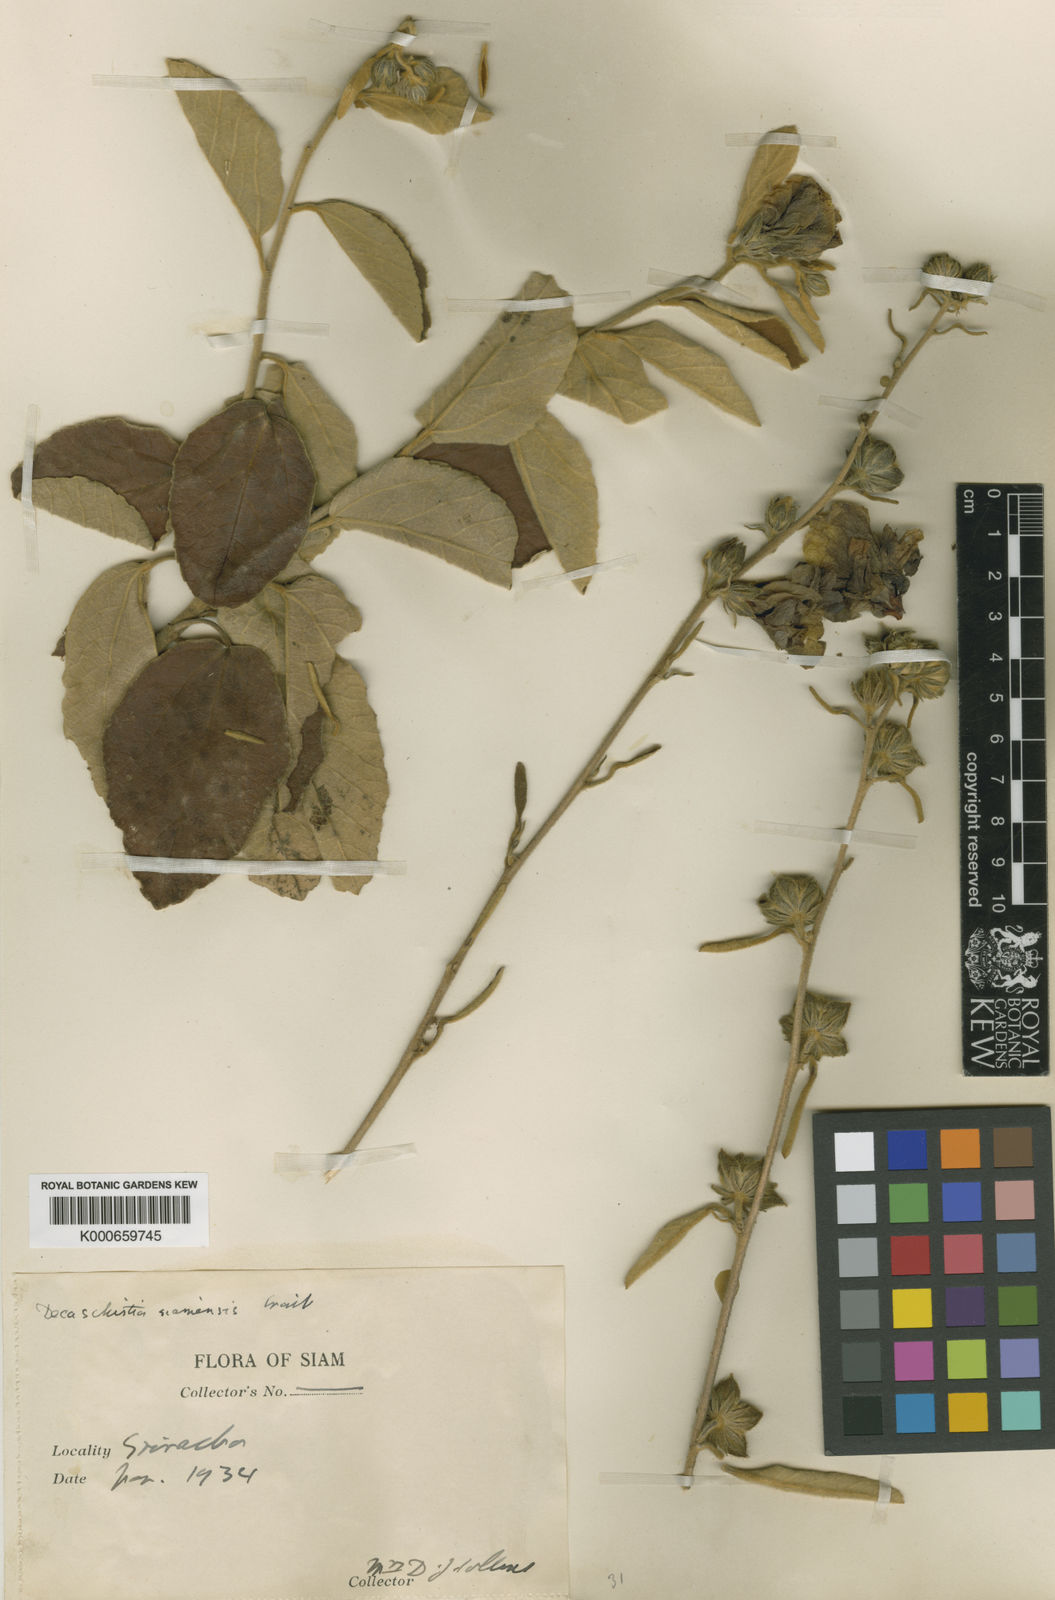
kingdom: Plantae
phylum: Tracheophyta
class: Magnoliopsida
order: Malvales
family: Malvaceae
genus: Decaschistia
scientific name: Decaschistia parviflora
